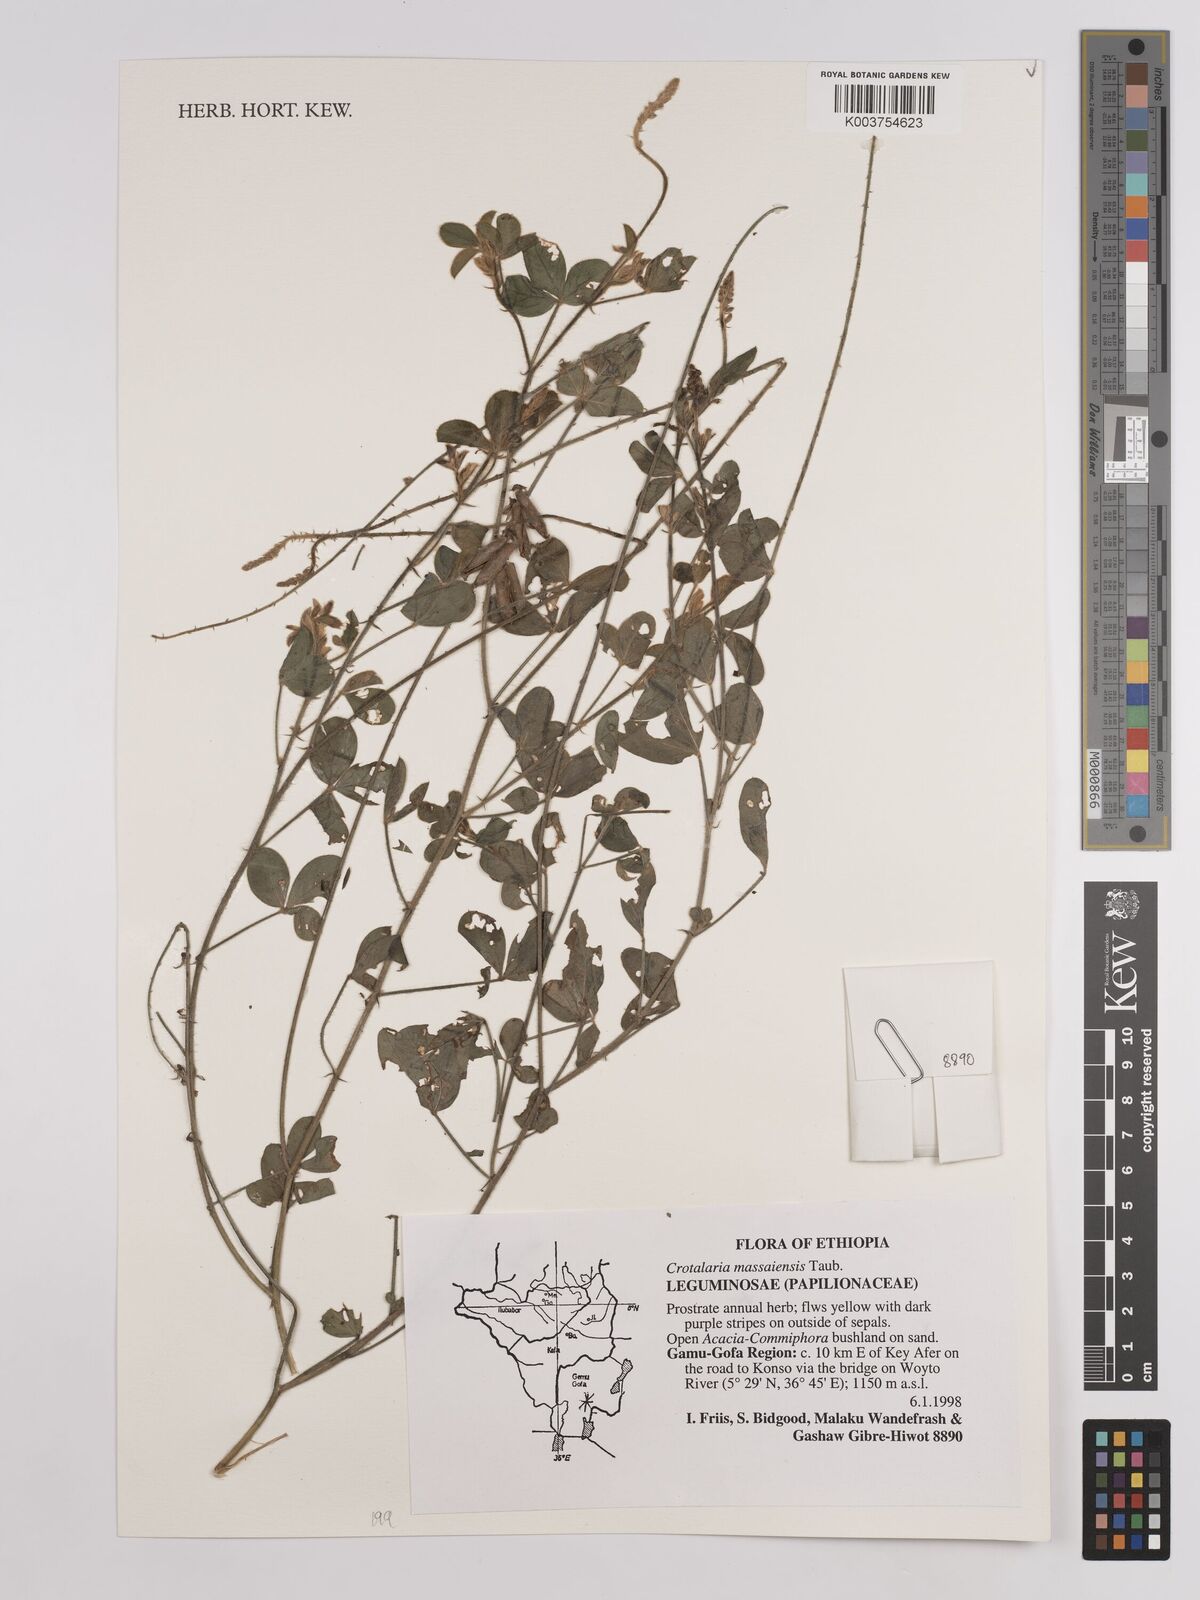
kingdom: Plantae
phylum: Tracheophyta
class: Magnoliopsida
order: Fabales
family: Fabaceae
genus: Crotalaria
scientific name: Crotalaria massaiensis
